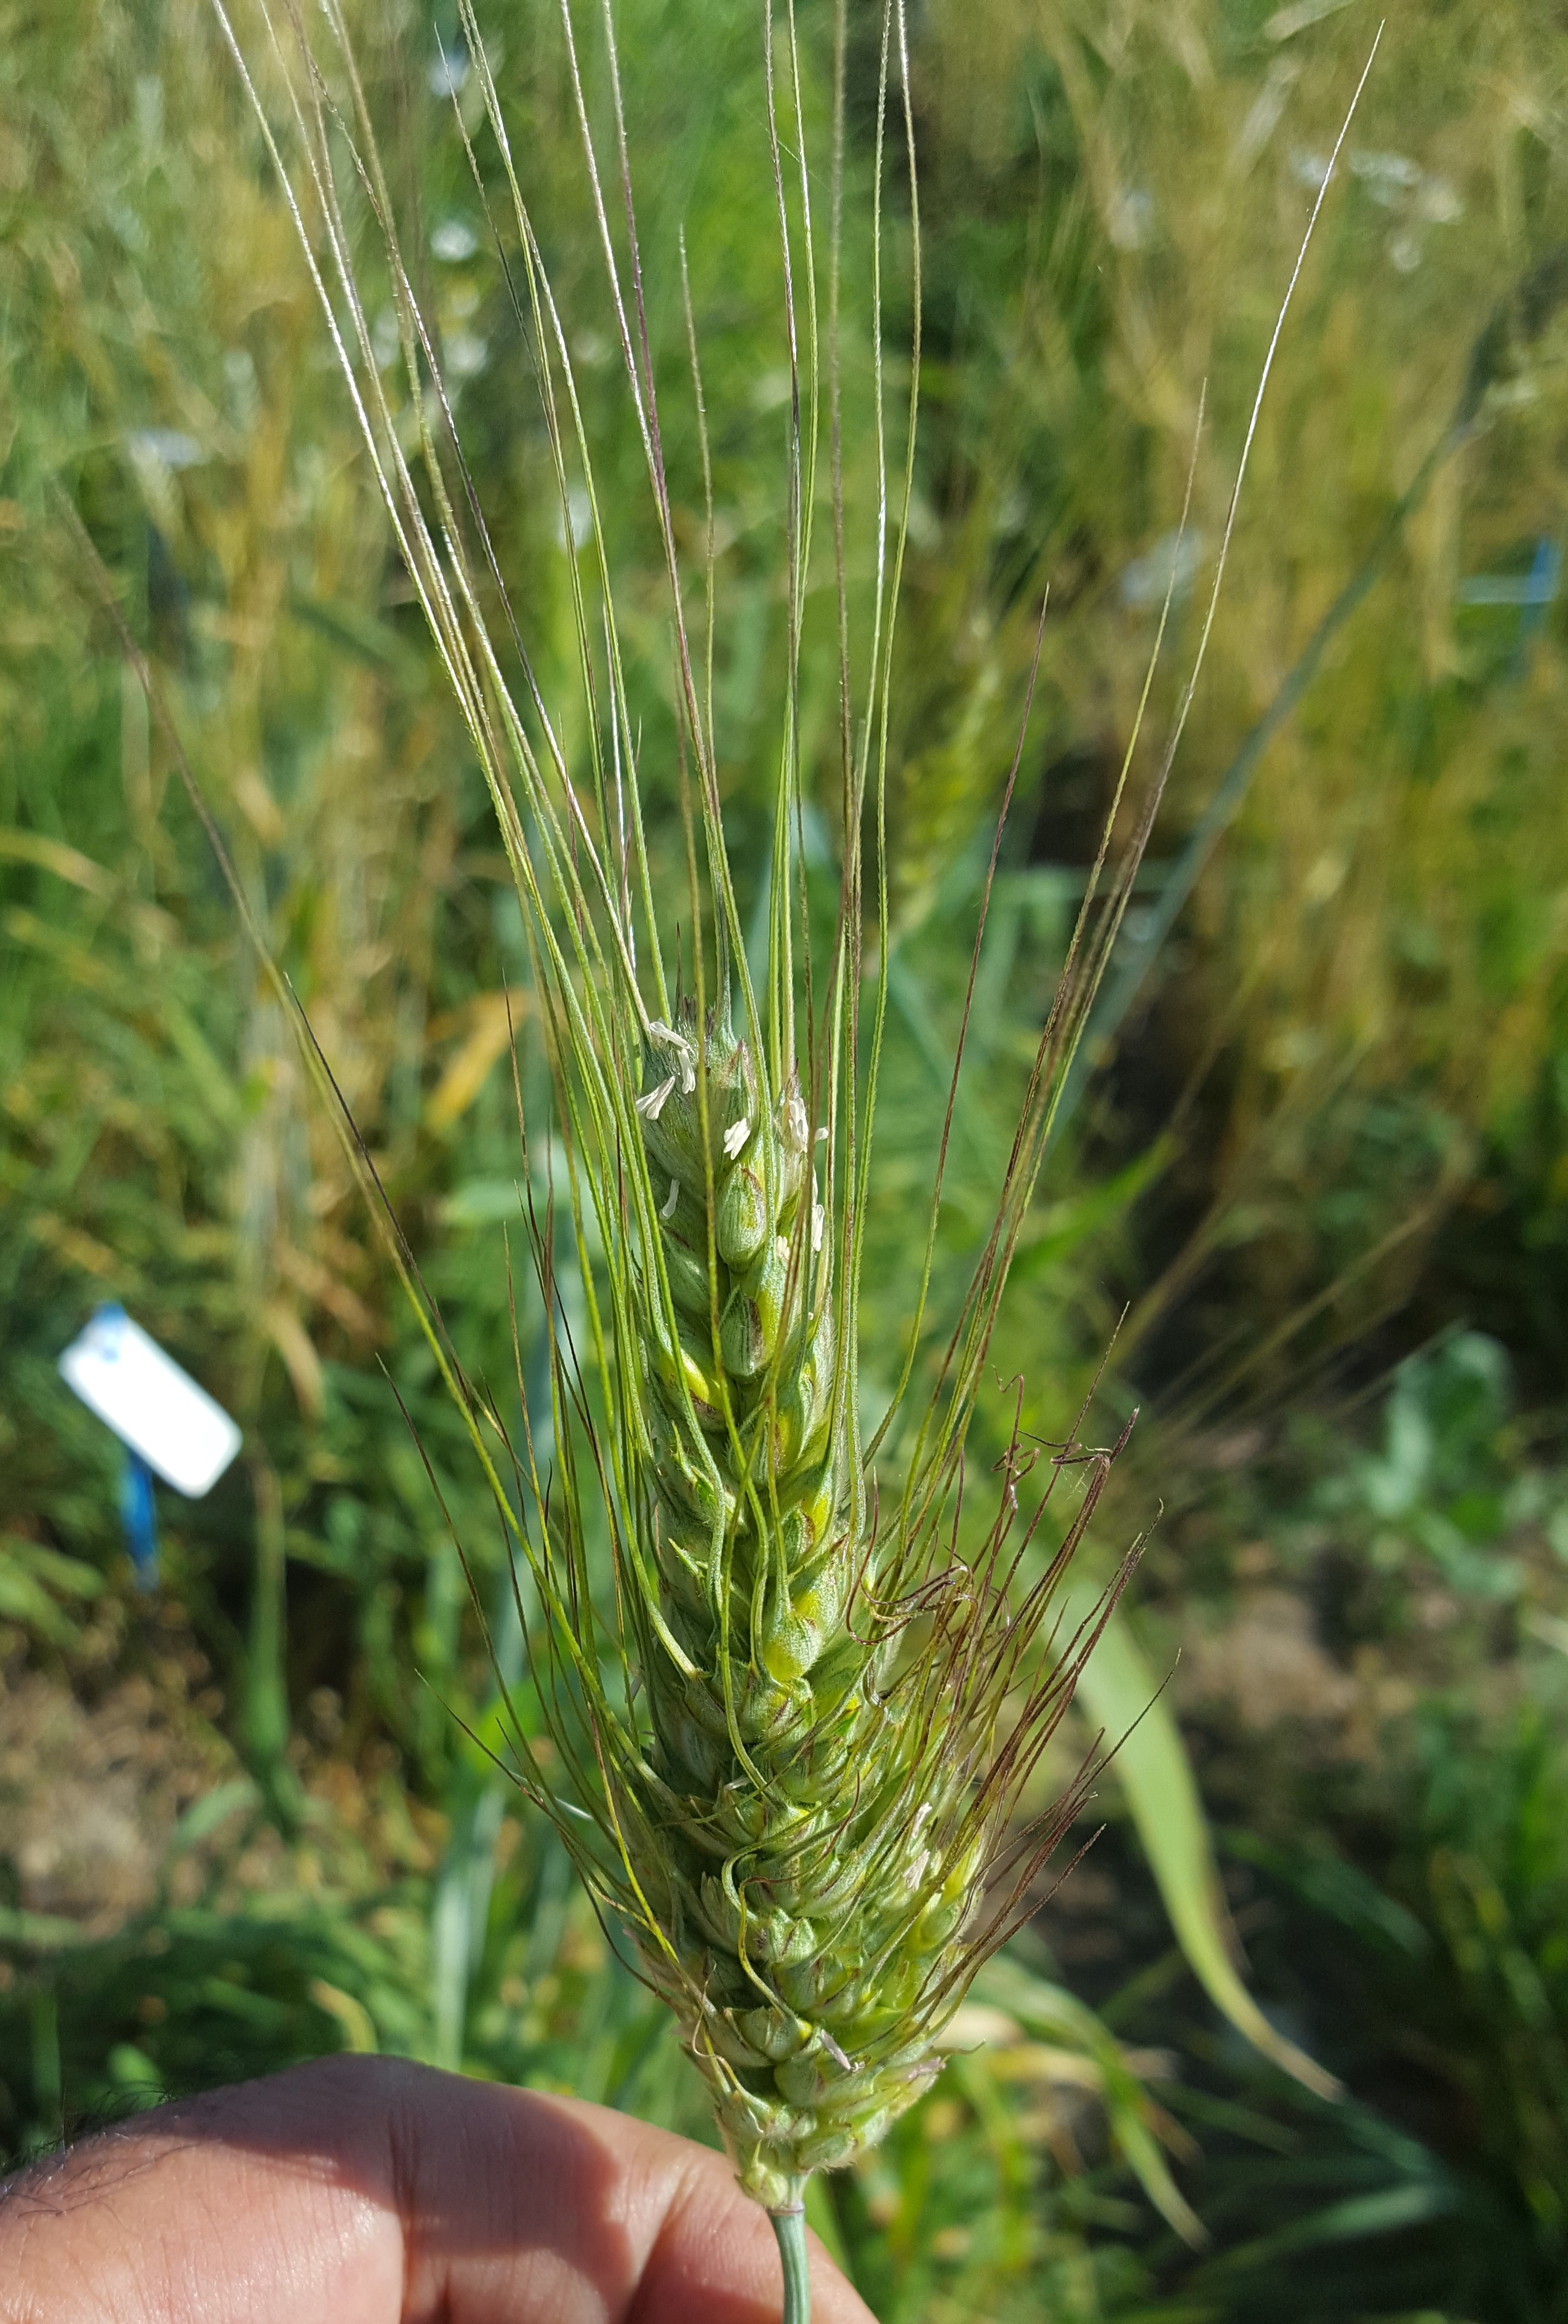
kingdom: Plantae
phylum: Tracheophyta
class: Liliopsida
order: Poales
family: Poaceae
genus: Triticum
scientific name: Triticum turgidum
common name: Rivet wheat
